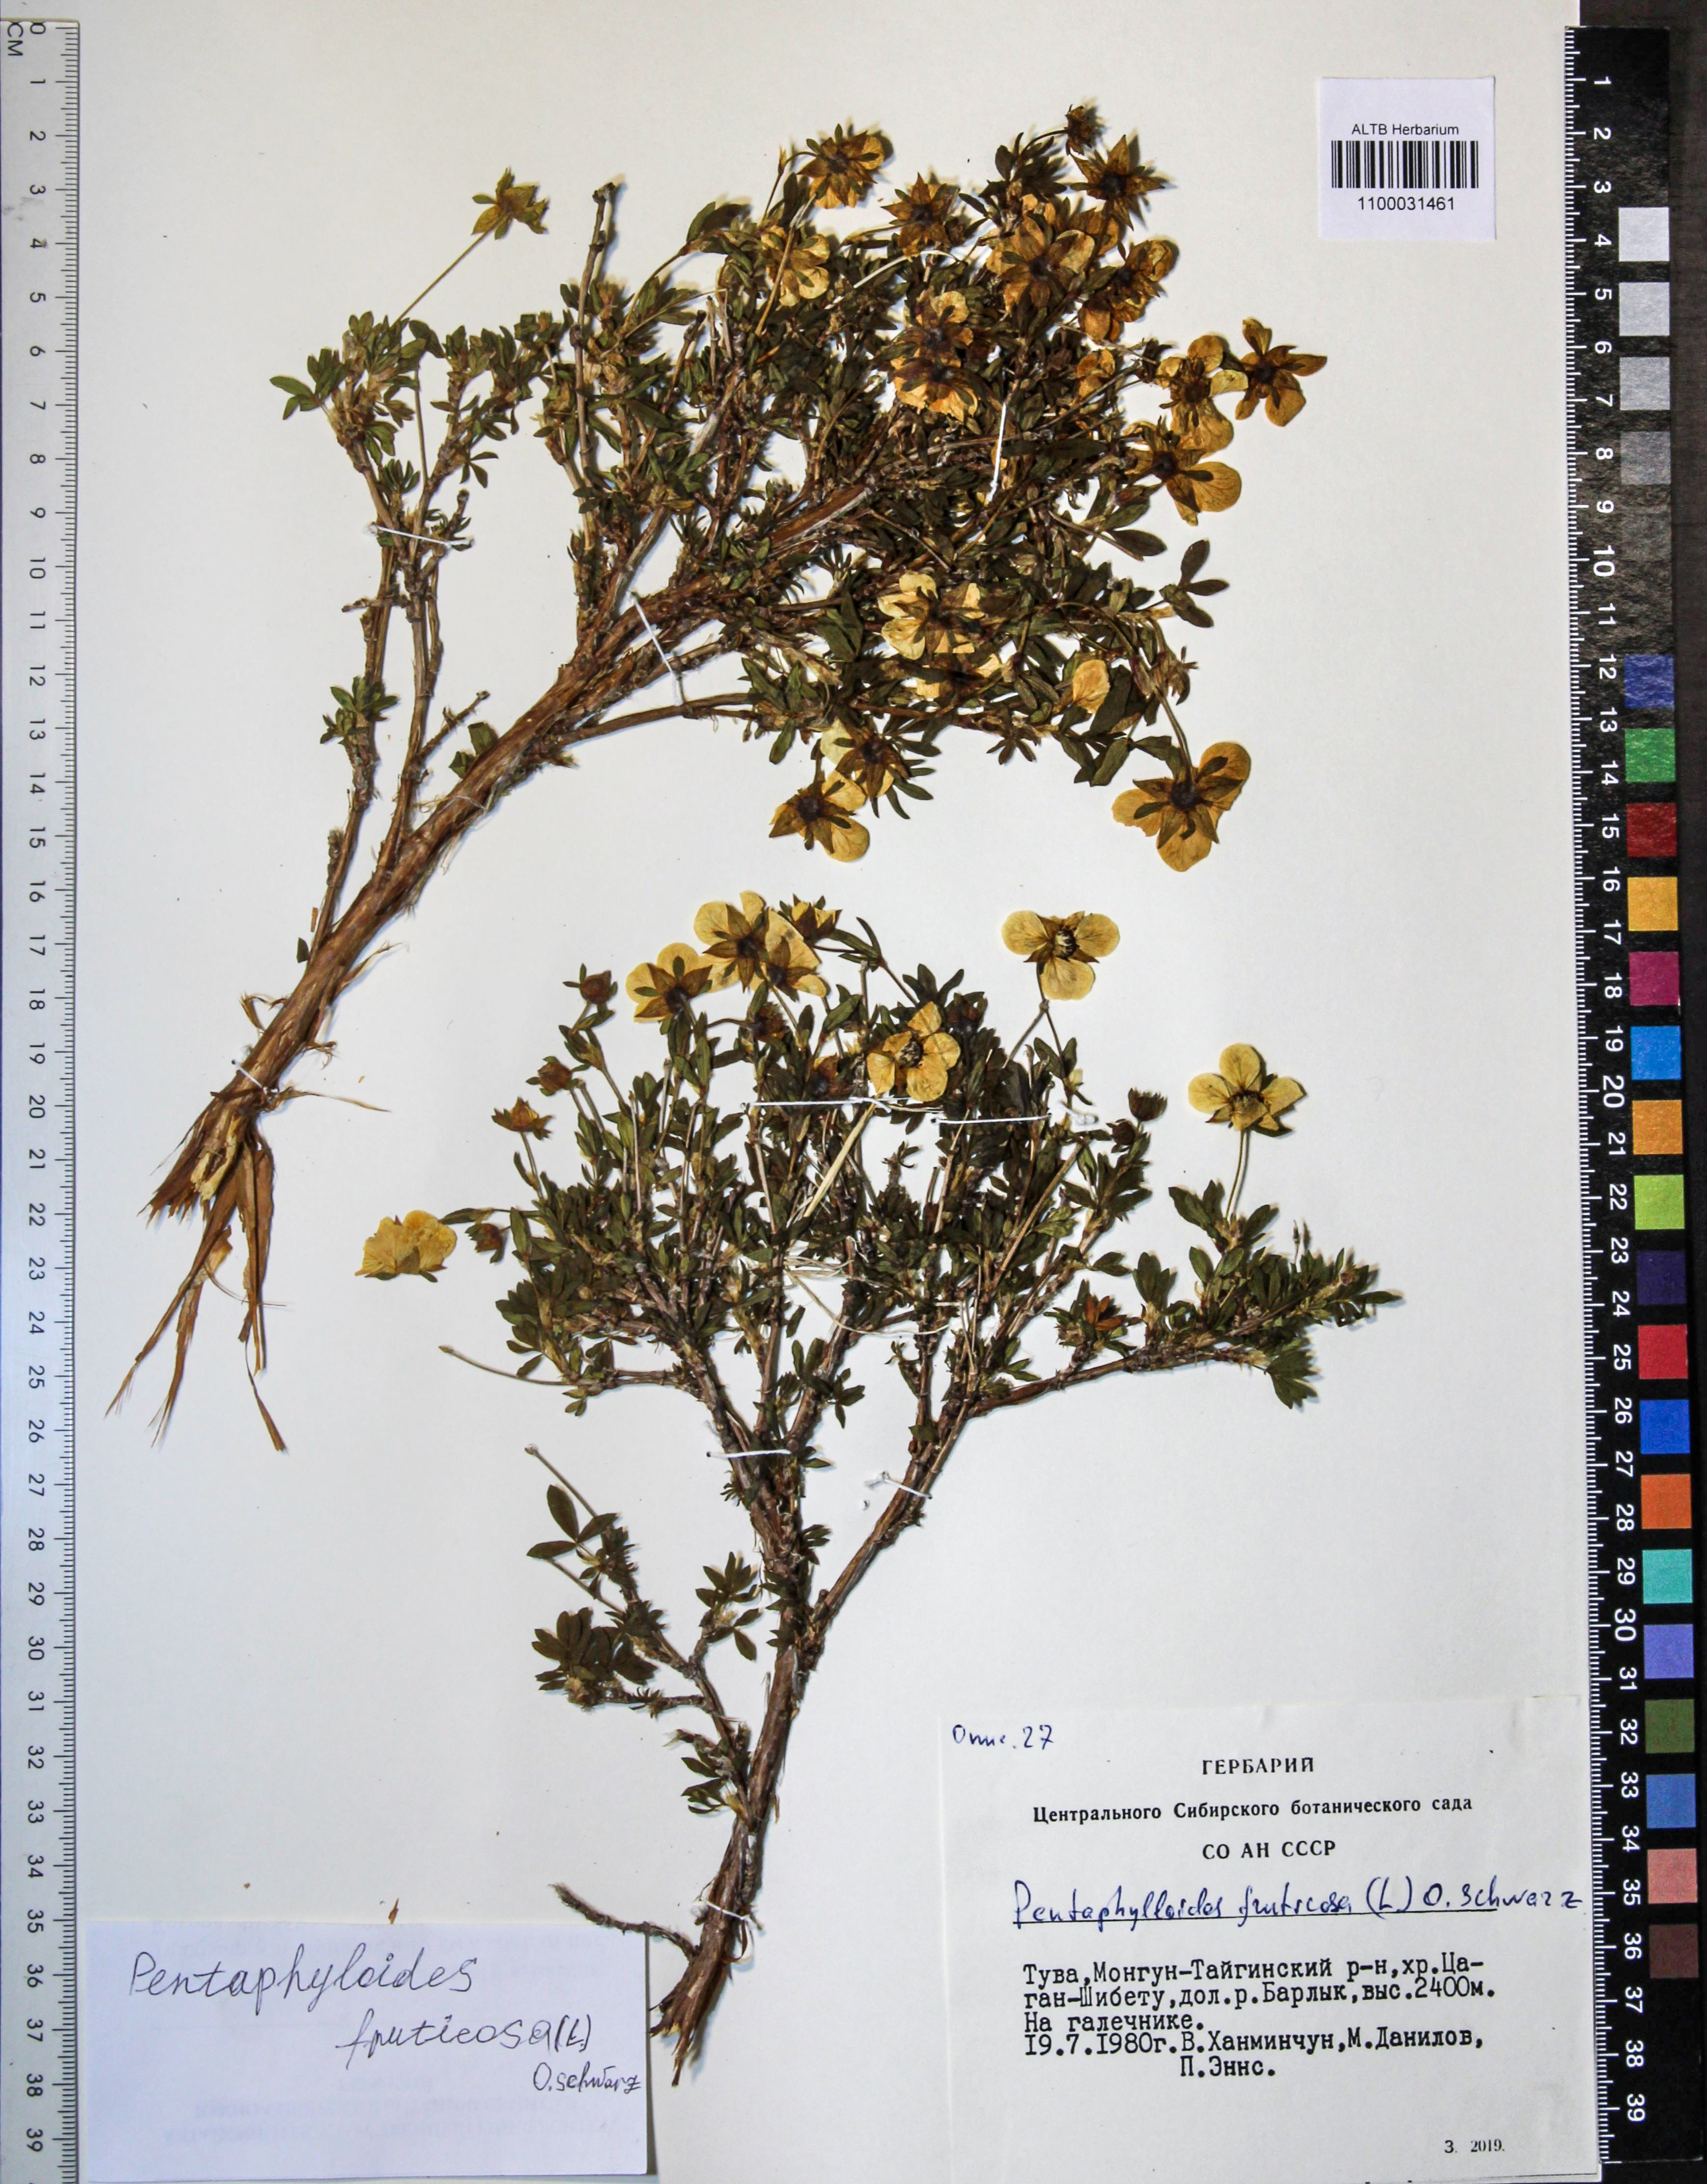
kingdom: Plantae
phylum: Tracheophyta
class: Magnoliopsida
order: Rosales
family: Rosaceae
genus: Dasiphora
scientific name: Dasiphora fruticosa
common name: Shrubby cinquefoil
